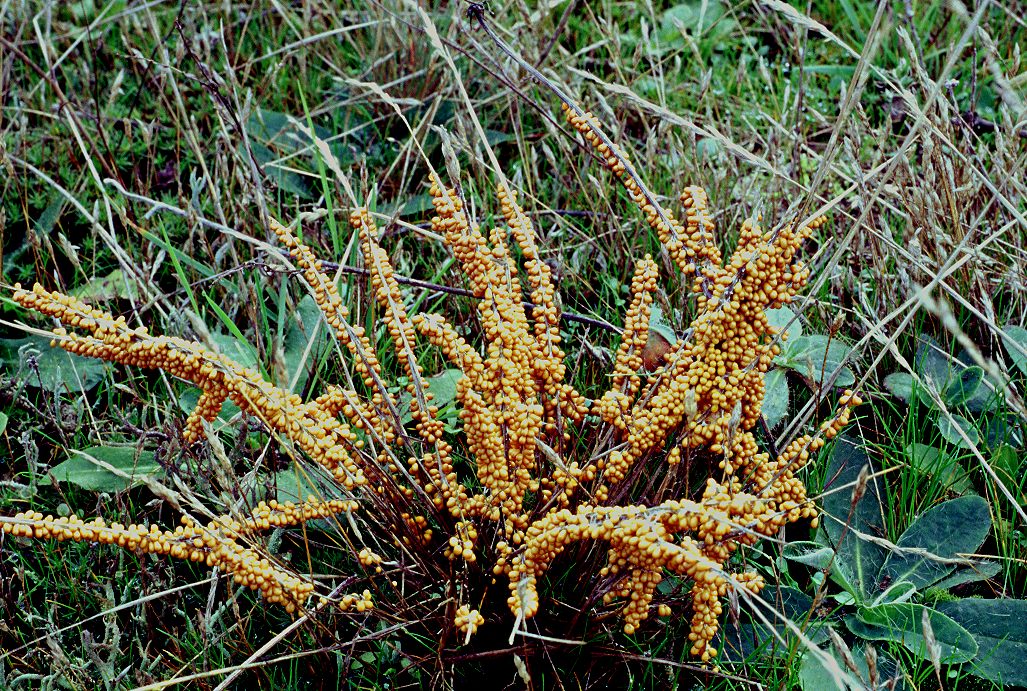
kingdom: Protozoa
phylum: Mycetozoa
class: Myxomycetes
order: Physarales
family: Physaraceae
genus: Leocarpus
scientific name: Leocarpus fragilis
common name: poleret glatfrø
